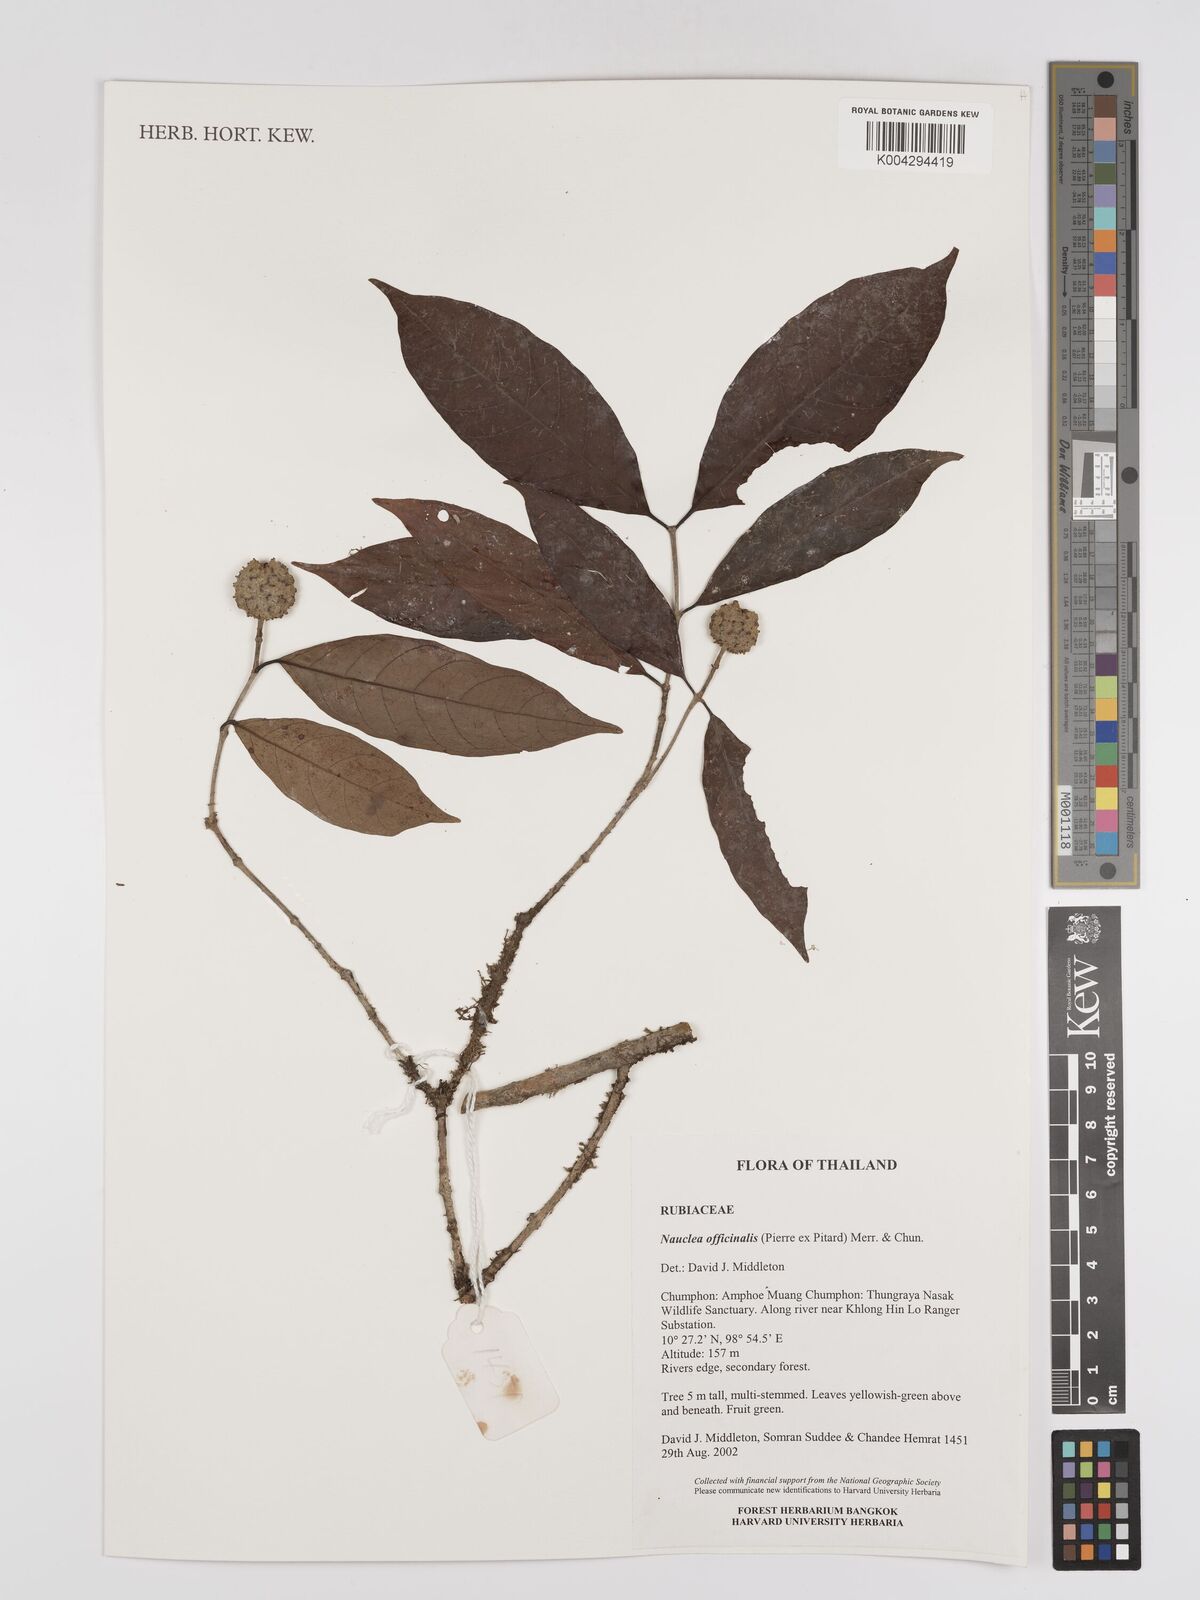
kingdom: Plantae
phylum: Tracheophyta
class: Magnoliopsida
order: Gentianales
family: Rubiaceae
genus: Nauclea
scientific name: Nauclea officinalis
